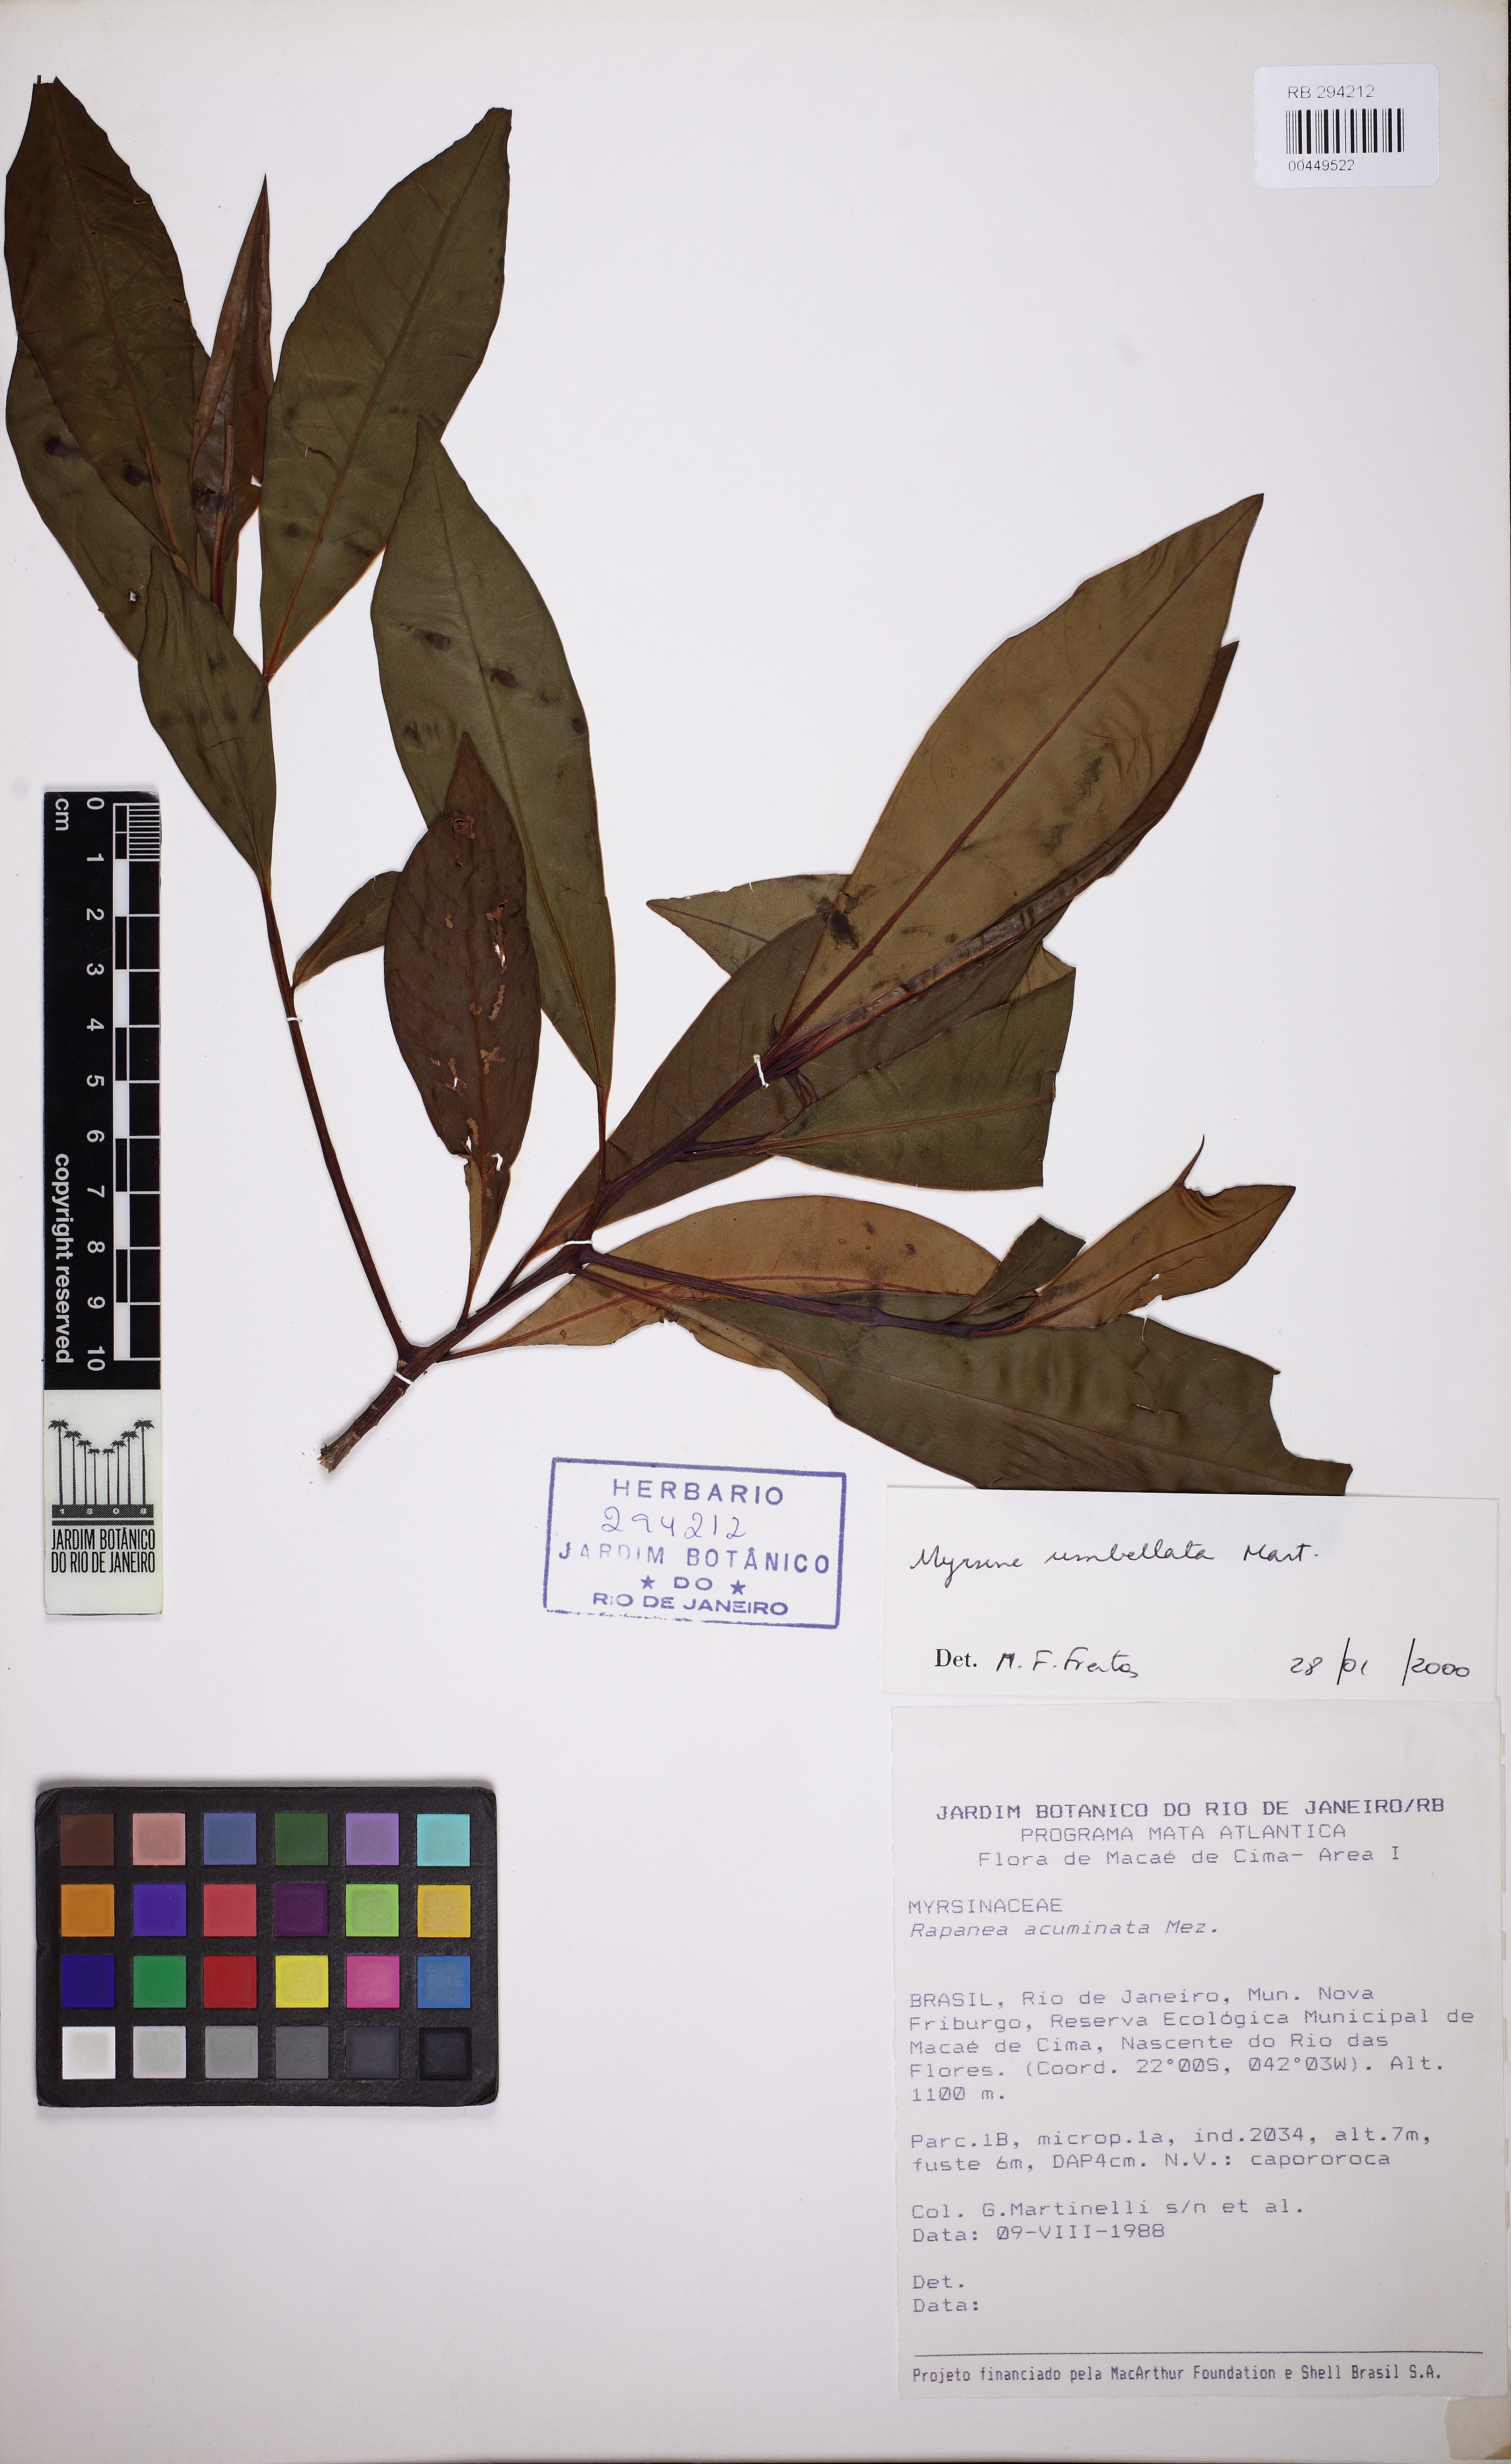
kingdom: Plantae
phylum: Tracheophyta
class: Magnoliopsida
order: Ericales
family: Primulaceae
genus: Myrsine
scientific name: Myrsine umbellata
